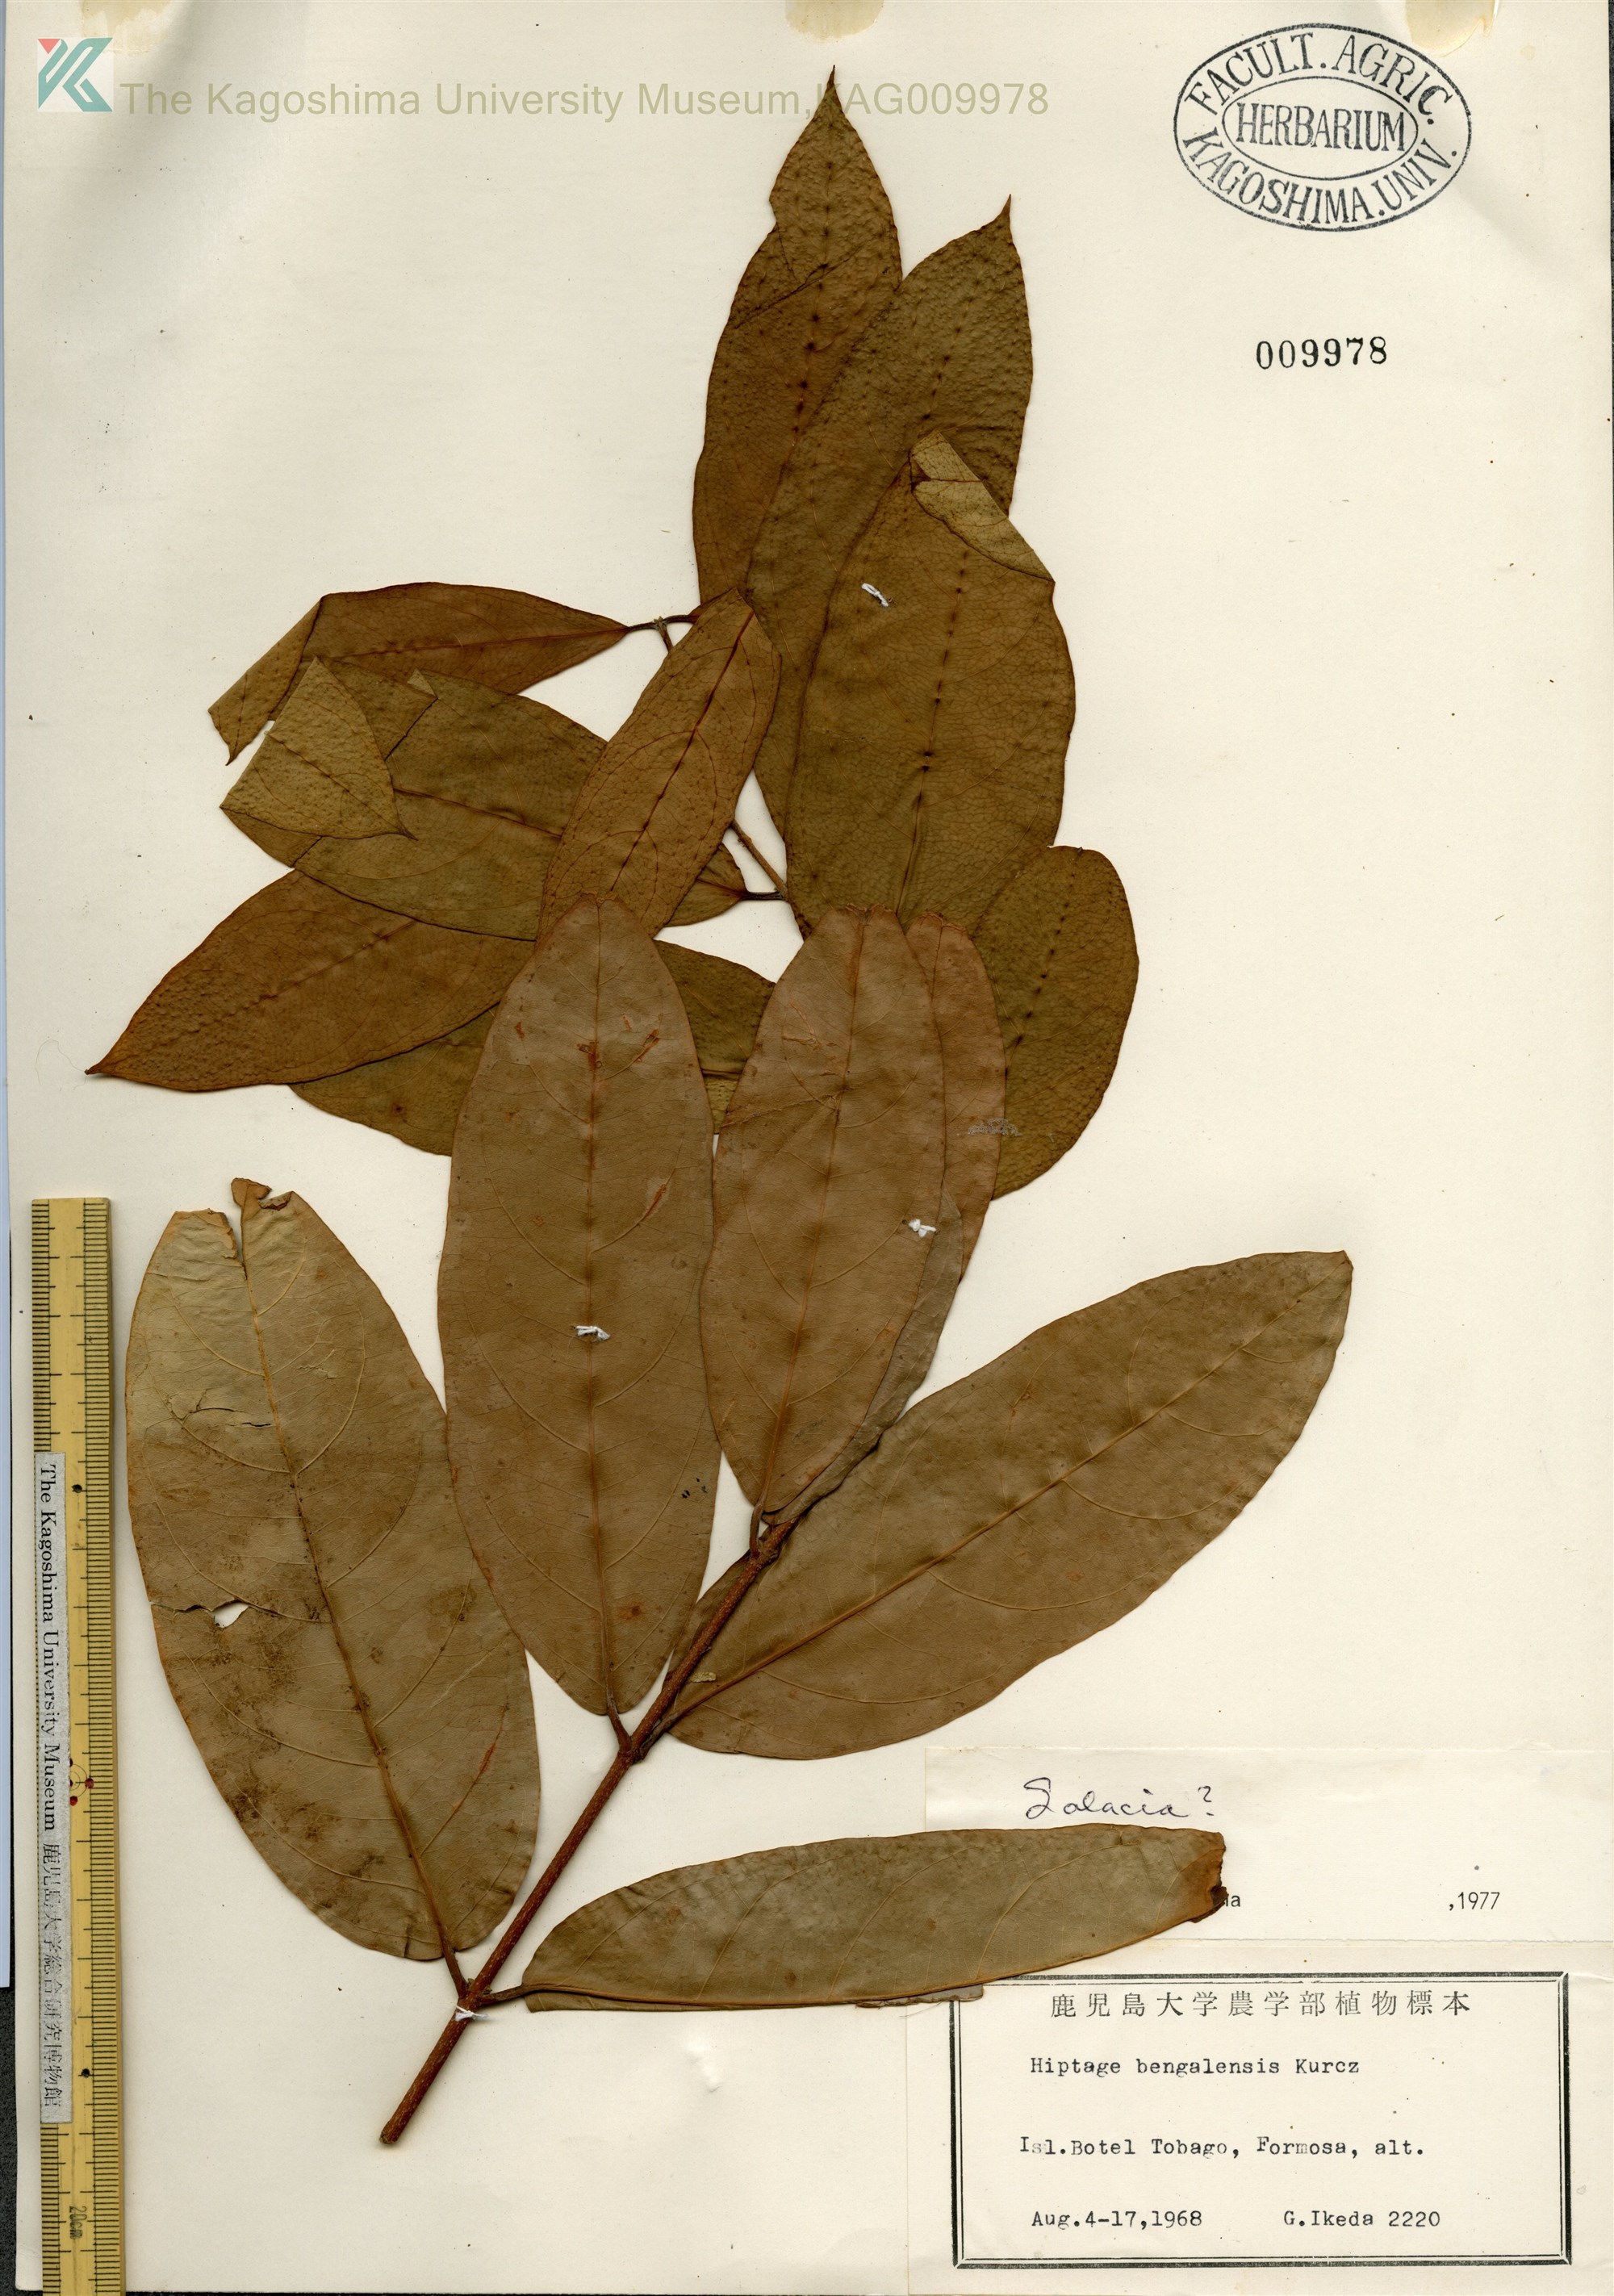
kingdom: Plantae
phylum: Tracheophyta
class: Magnoliopsida
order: Celastrales
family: Celastraceae
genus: Salacia
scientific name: Salacia
